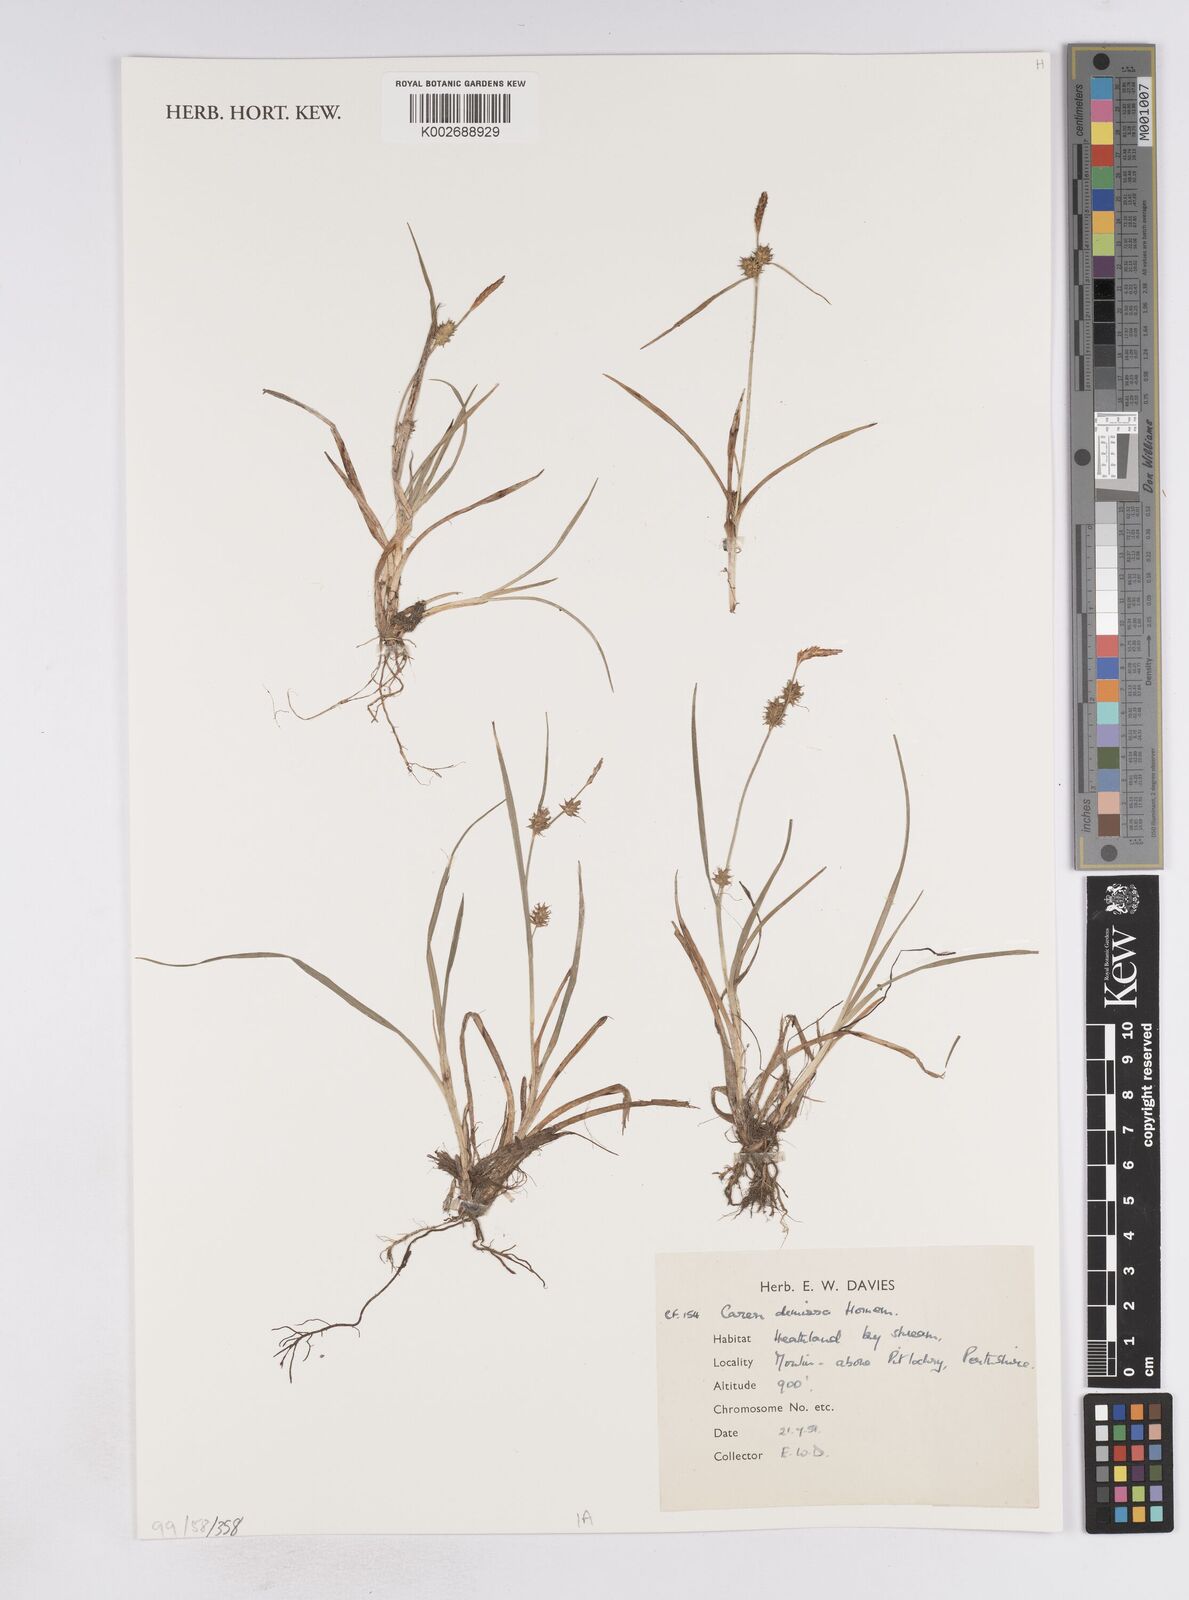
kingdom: Plantae
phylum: Tracheophyta
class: Liliopsida
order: Poales
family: Cyperaceae
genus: Carex
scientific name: Carex demissa
